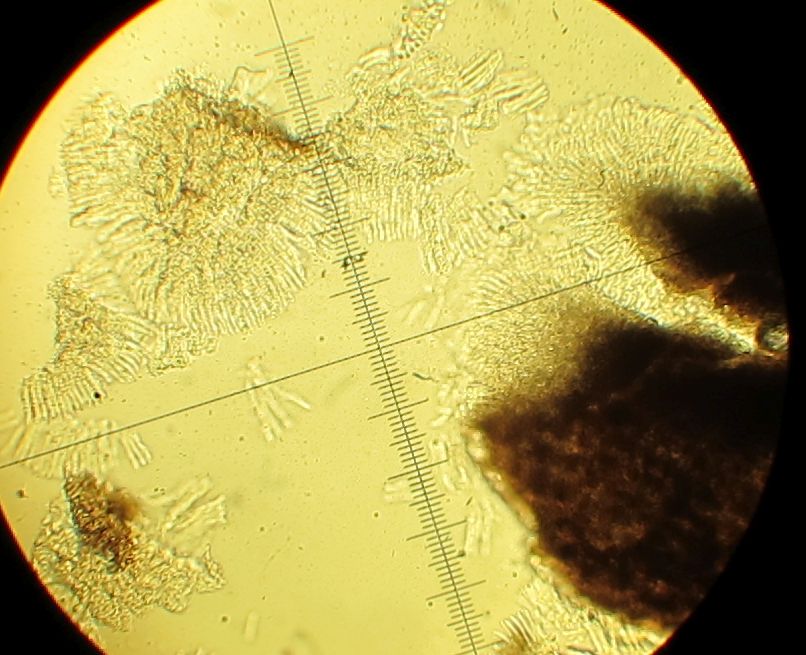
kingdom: Fungi
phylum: Ascomycota
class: Leotiomycetes
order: Rhytismatales
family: Rhytismataceae
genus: Hypoderma
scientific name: Hypoderma rubi
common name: brombær-fureplet
